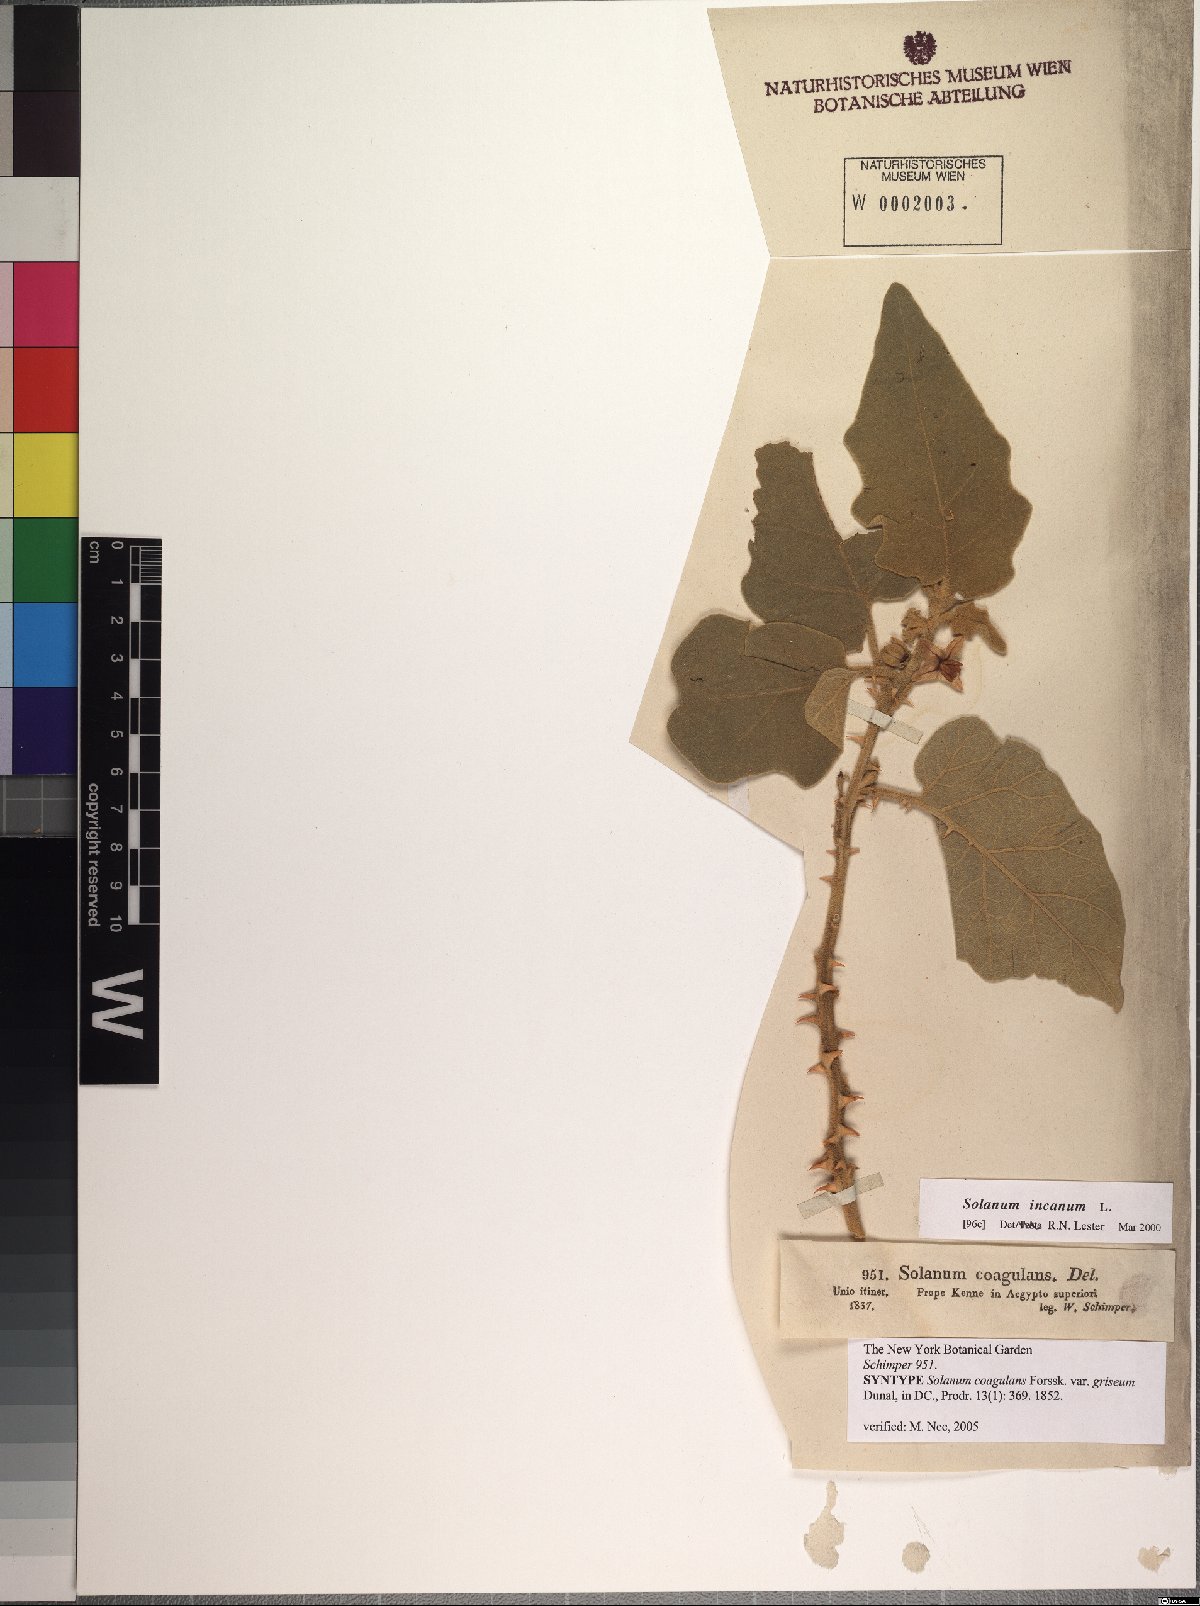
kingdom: Plantae
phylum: Tracheophyta
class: Magnoliopsida
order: Solanales
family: Solanaceae
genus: Solanum
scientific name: Solanum incanum
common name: Bitter apple
